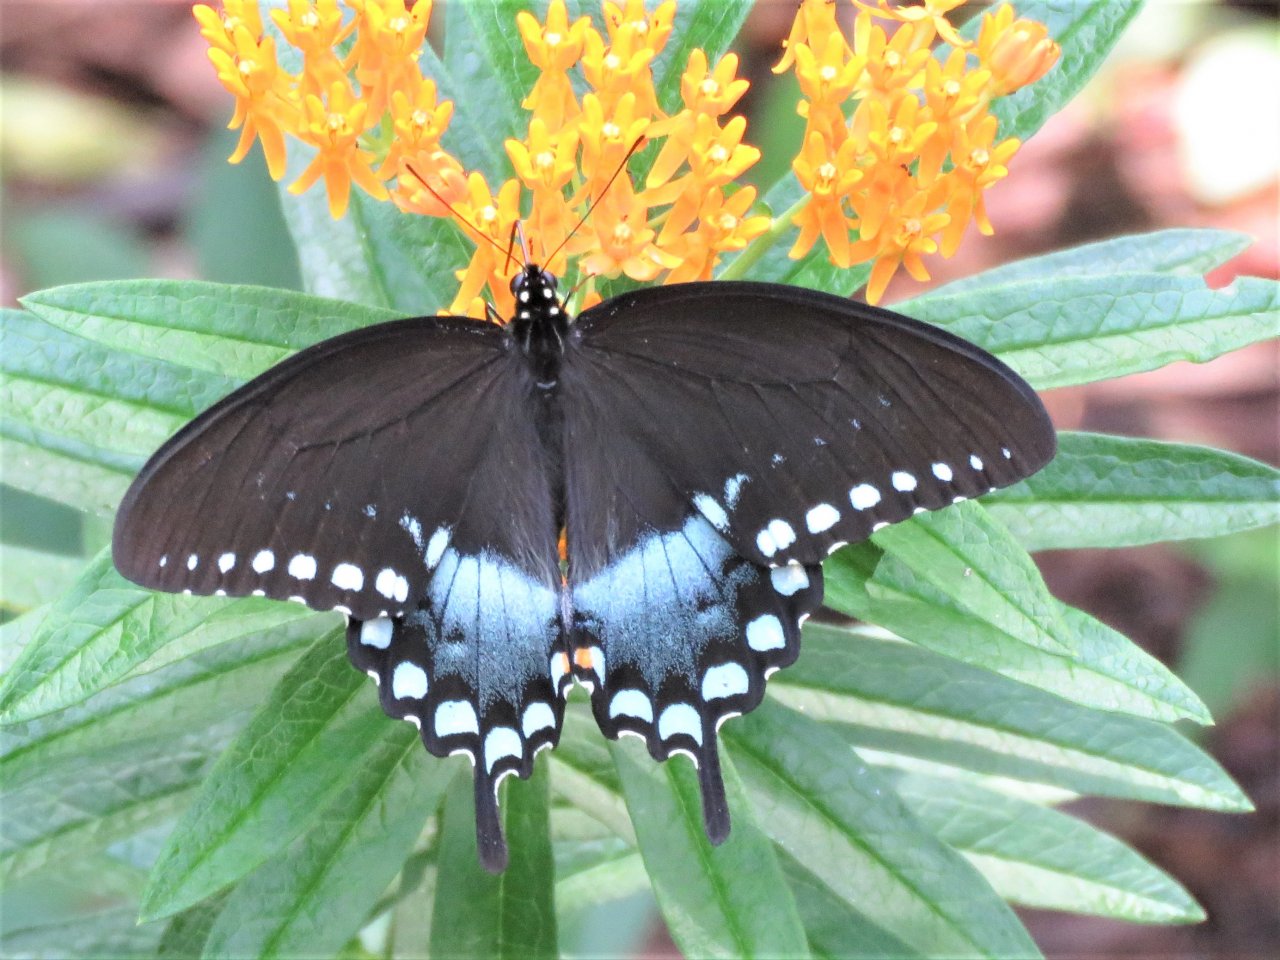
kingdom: Animalia
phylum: Arthropoda
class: Insecta
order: Lepidoptera
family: Papilionidae
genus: Pterourus
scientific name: Pterourus troilus
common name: Spicebush Swallowtail
